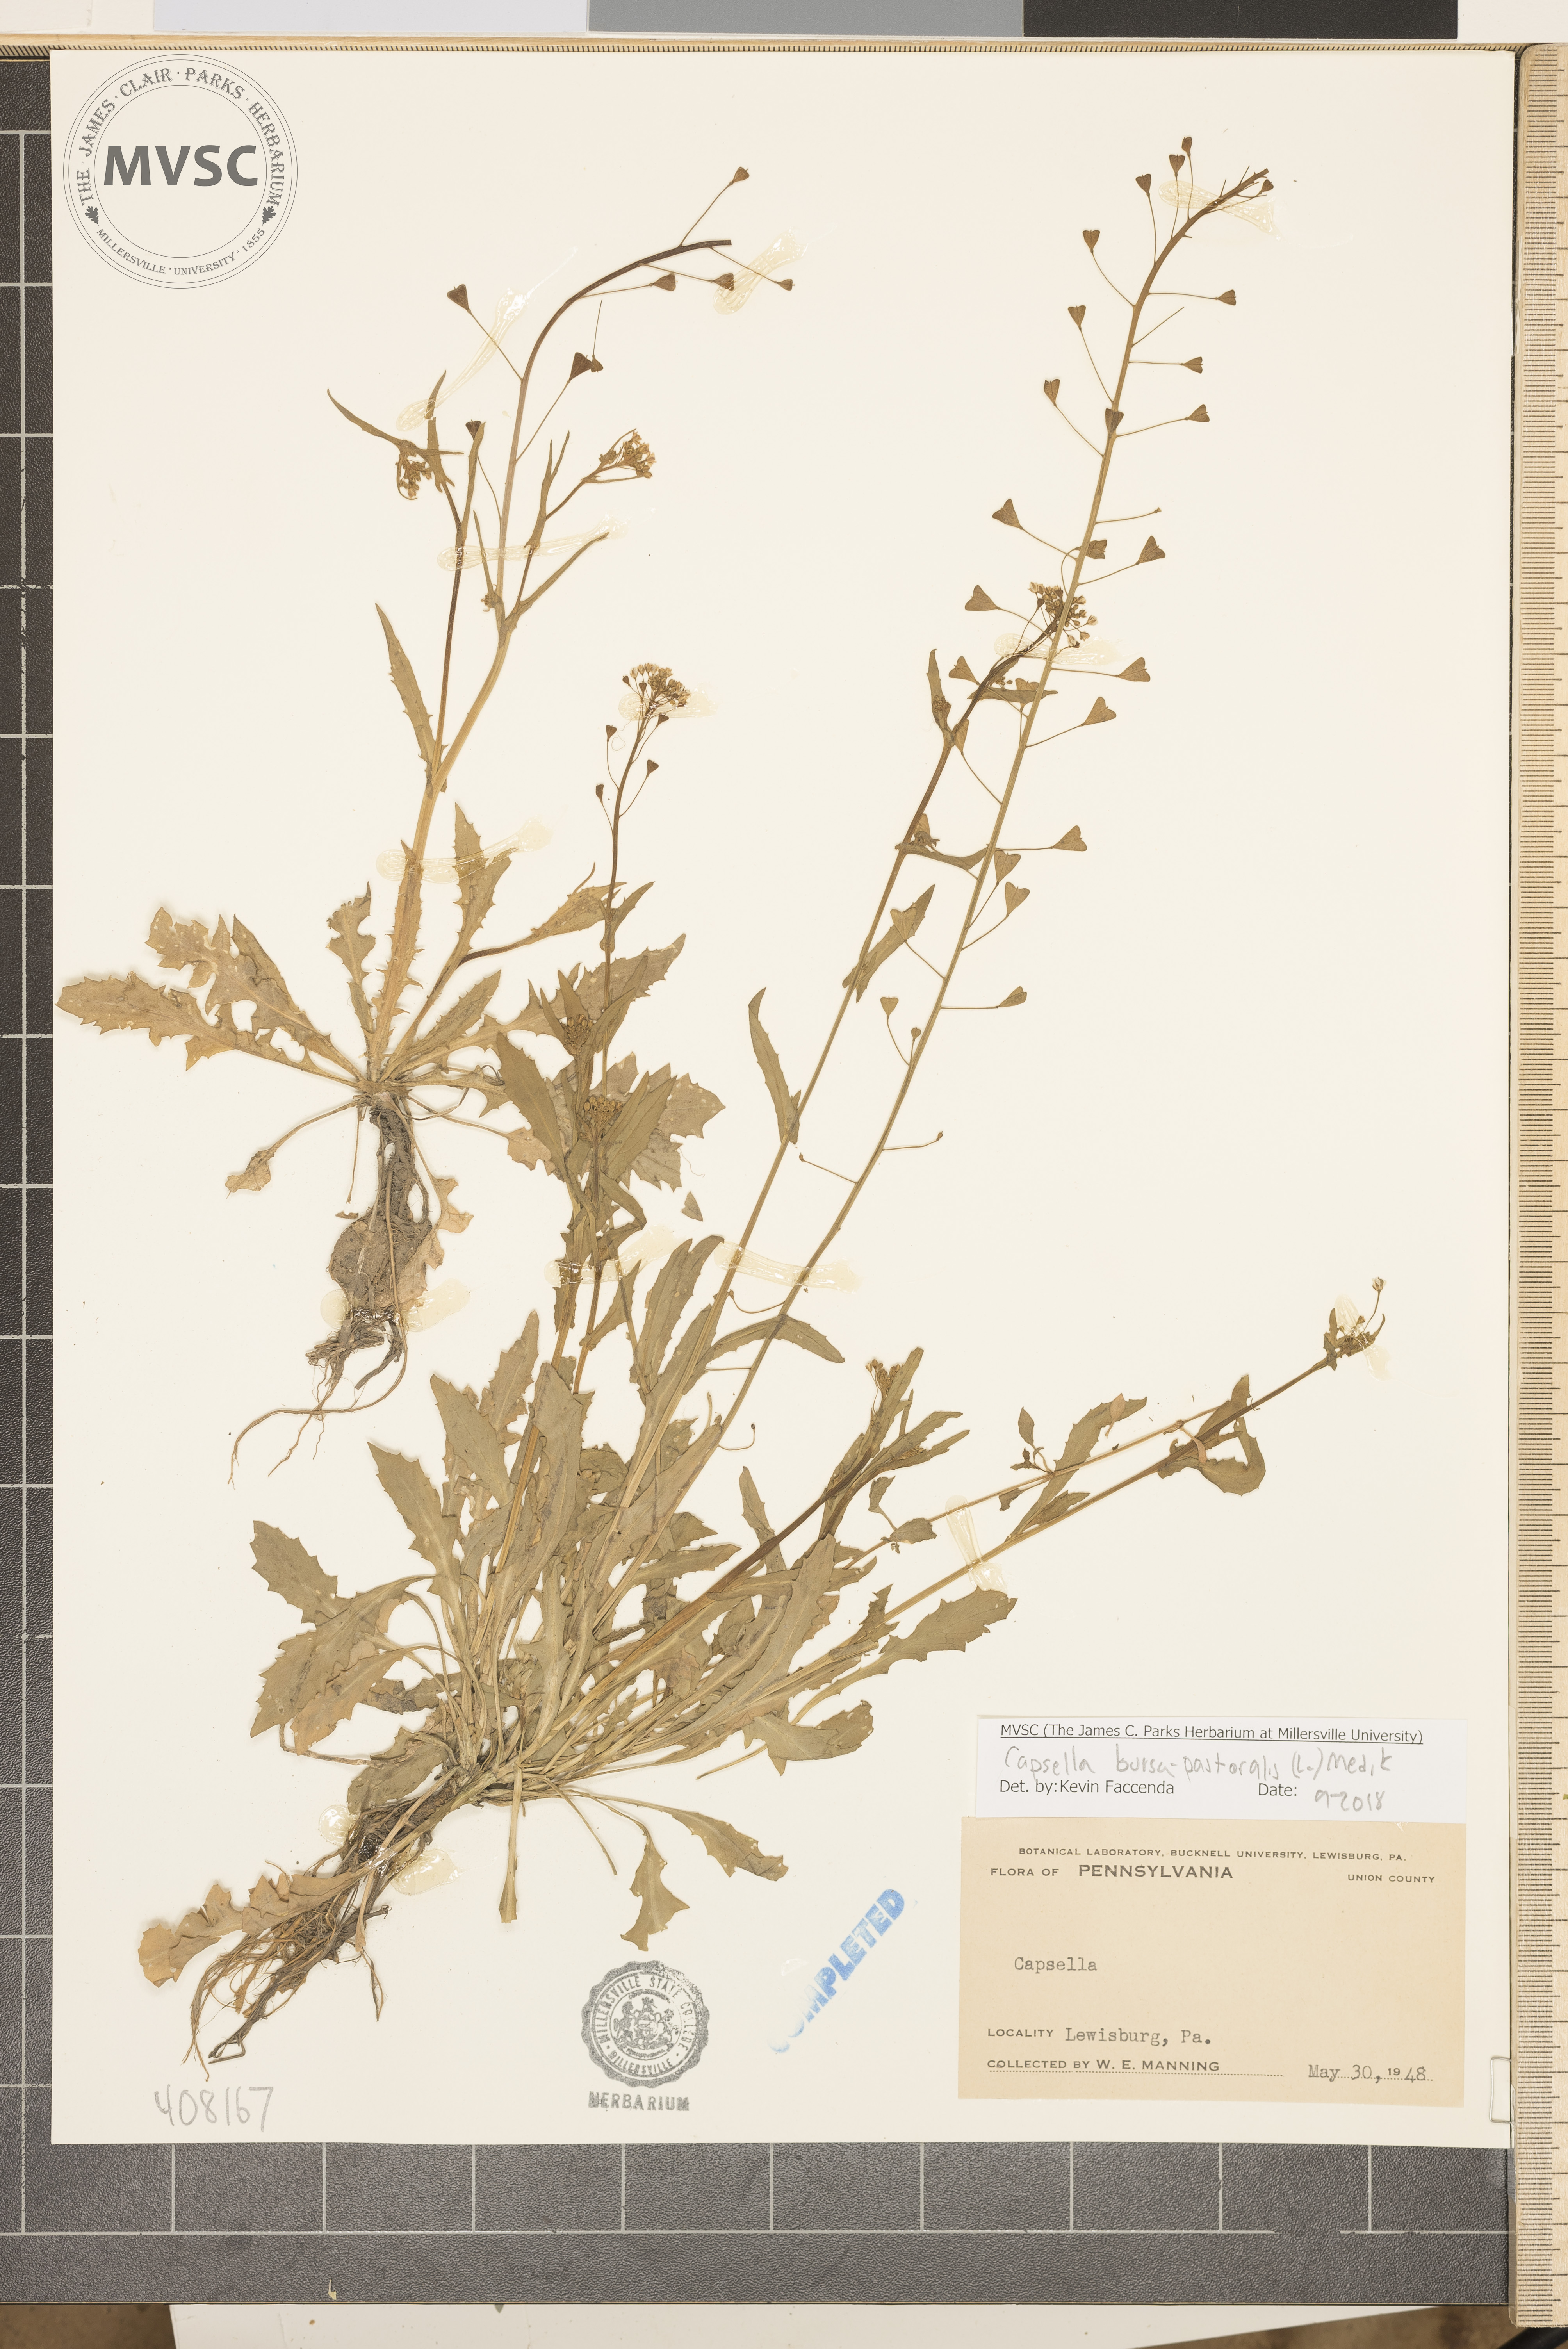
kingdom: Plantae
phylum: Tracheophyta
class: Magnoliopsida
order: Brassicales
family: Brassicaceae
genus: Capsella
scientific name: Capsella bursa-pastoris
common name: Shepherd's purse
